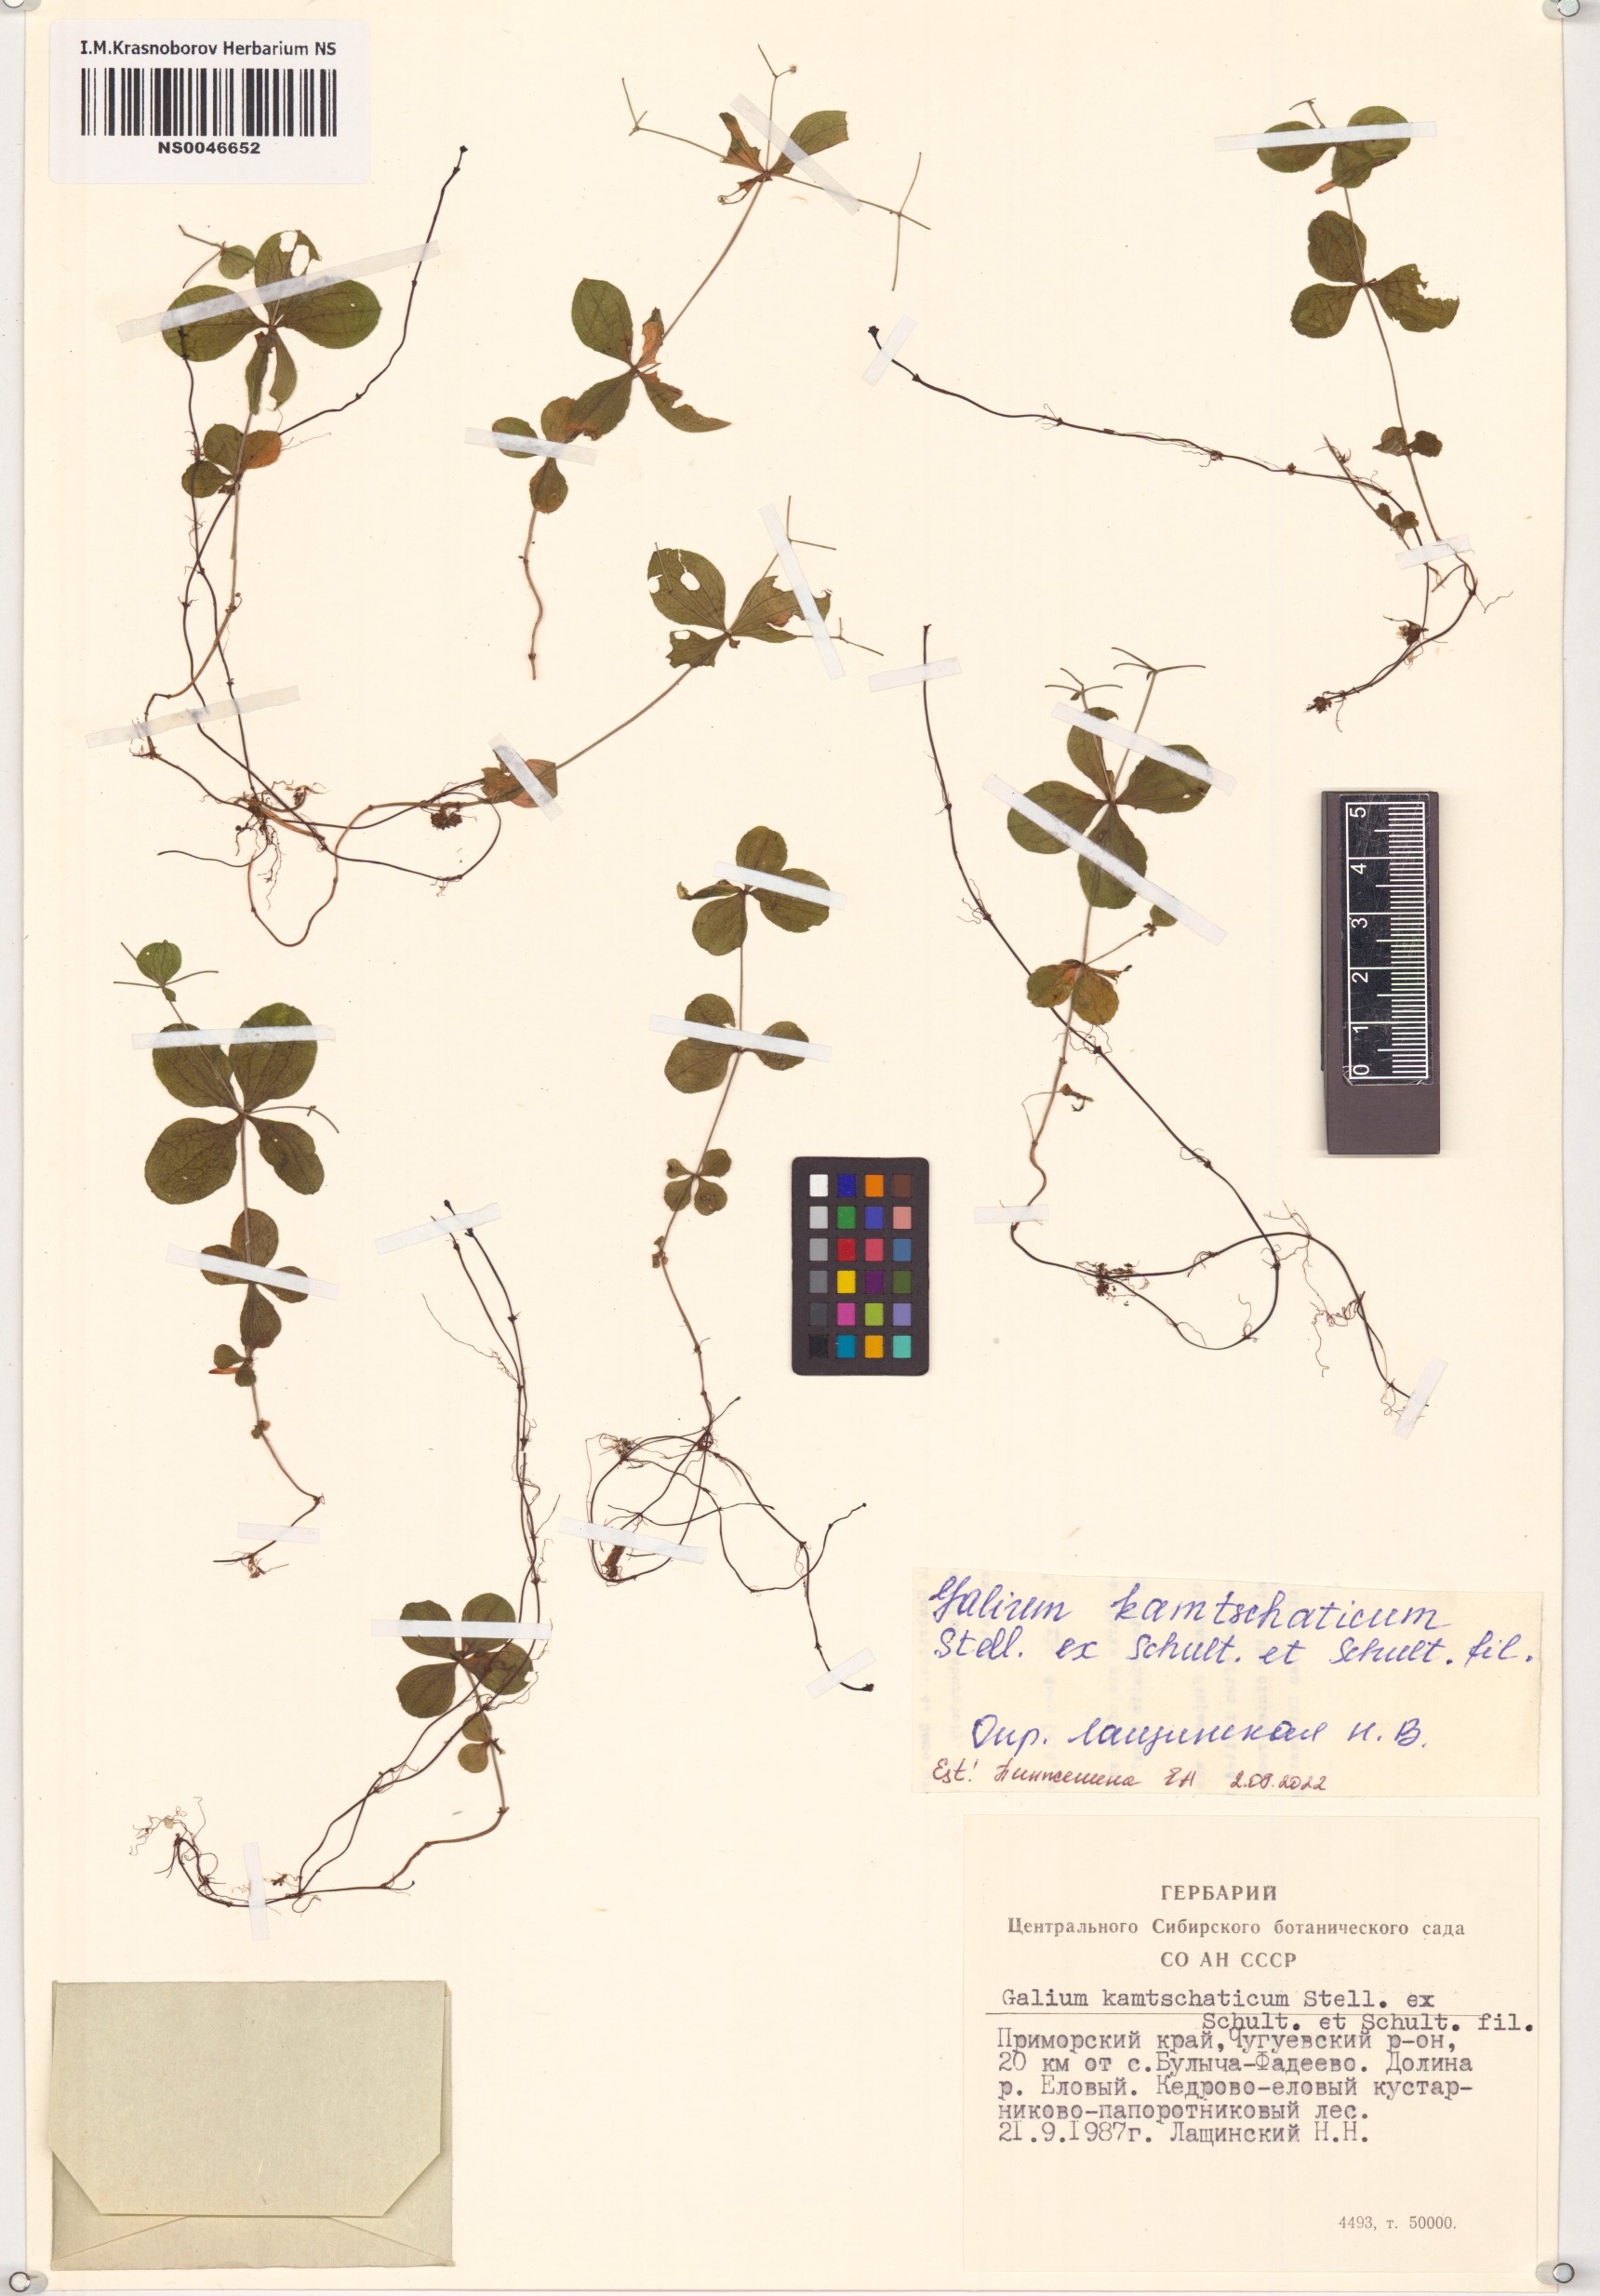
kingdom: Plantae
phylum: Tracheophyta
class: Magnoliopsida
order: Gentianales
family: Rubiaceae
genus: Galium
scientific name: Galium kamtschaticum
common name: Boreal bedstraw
